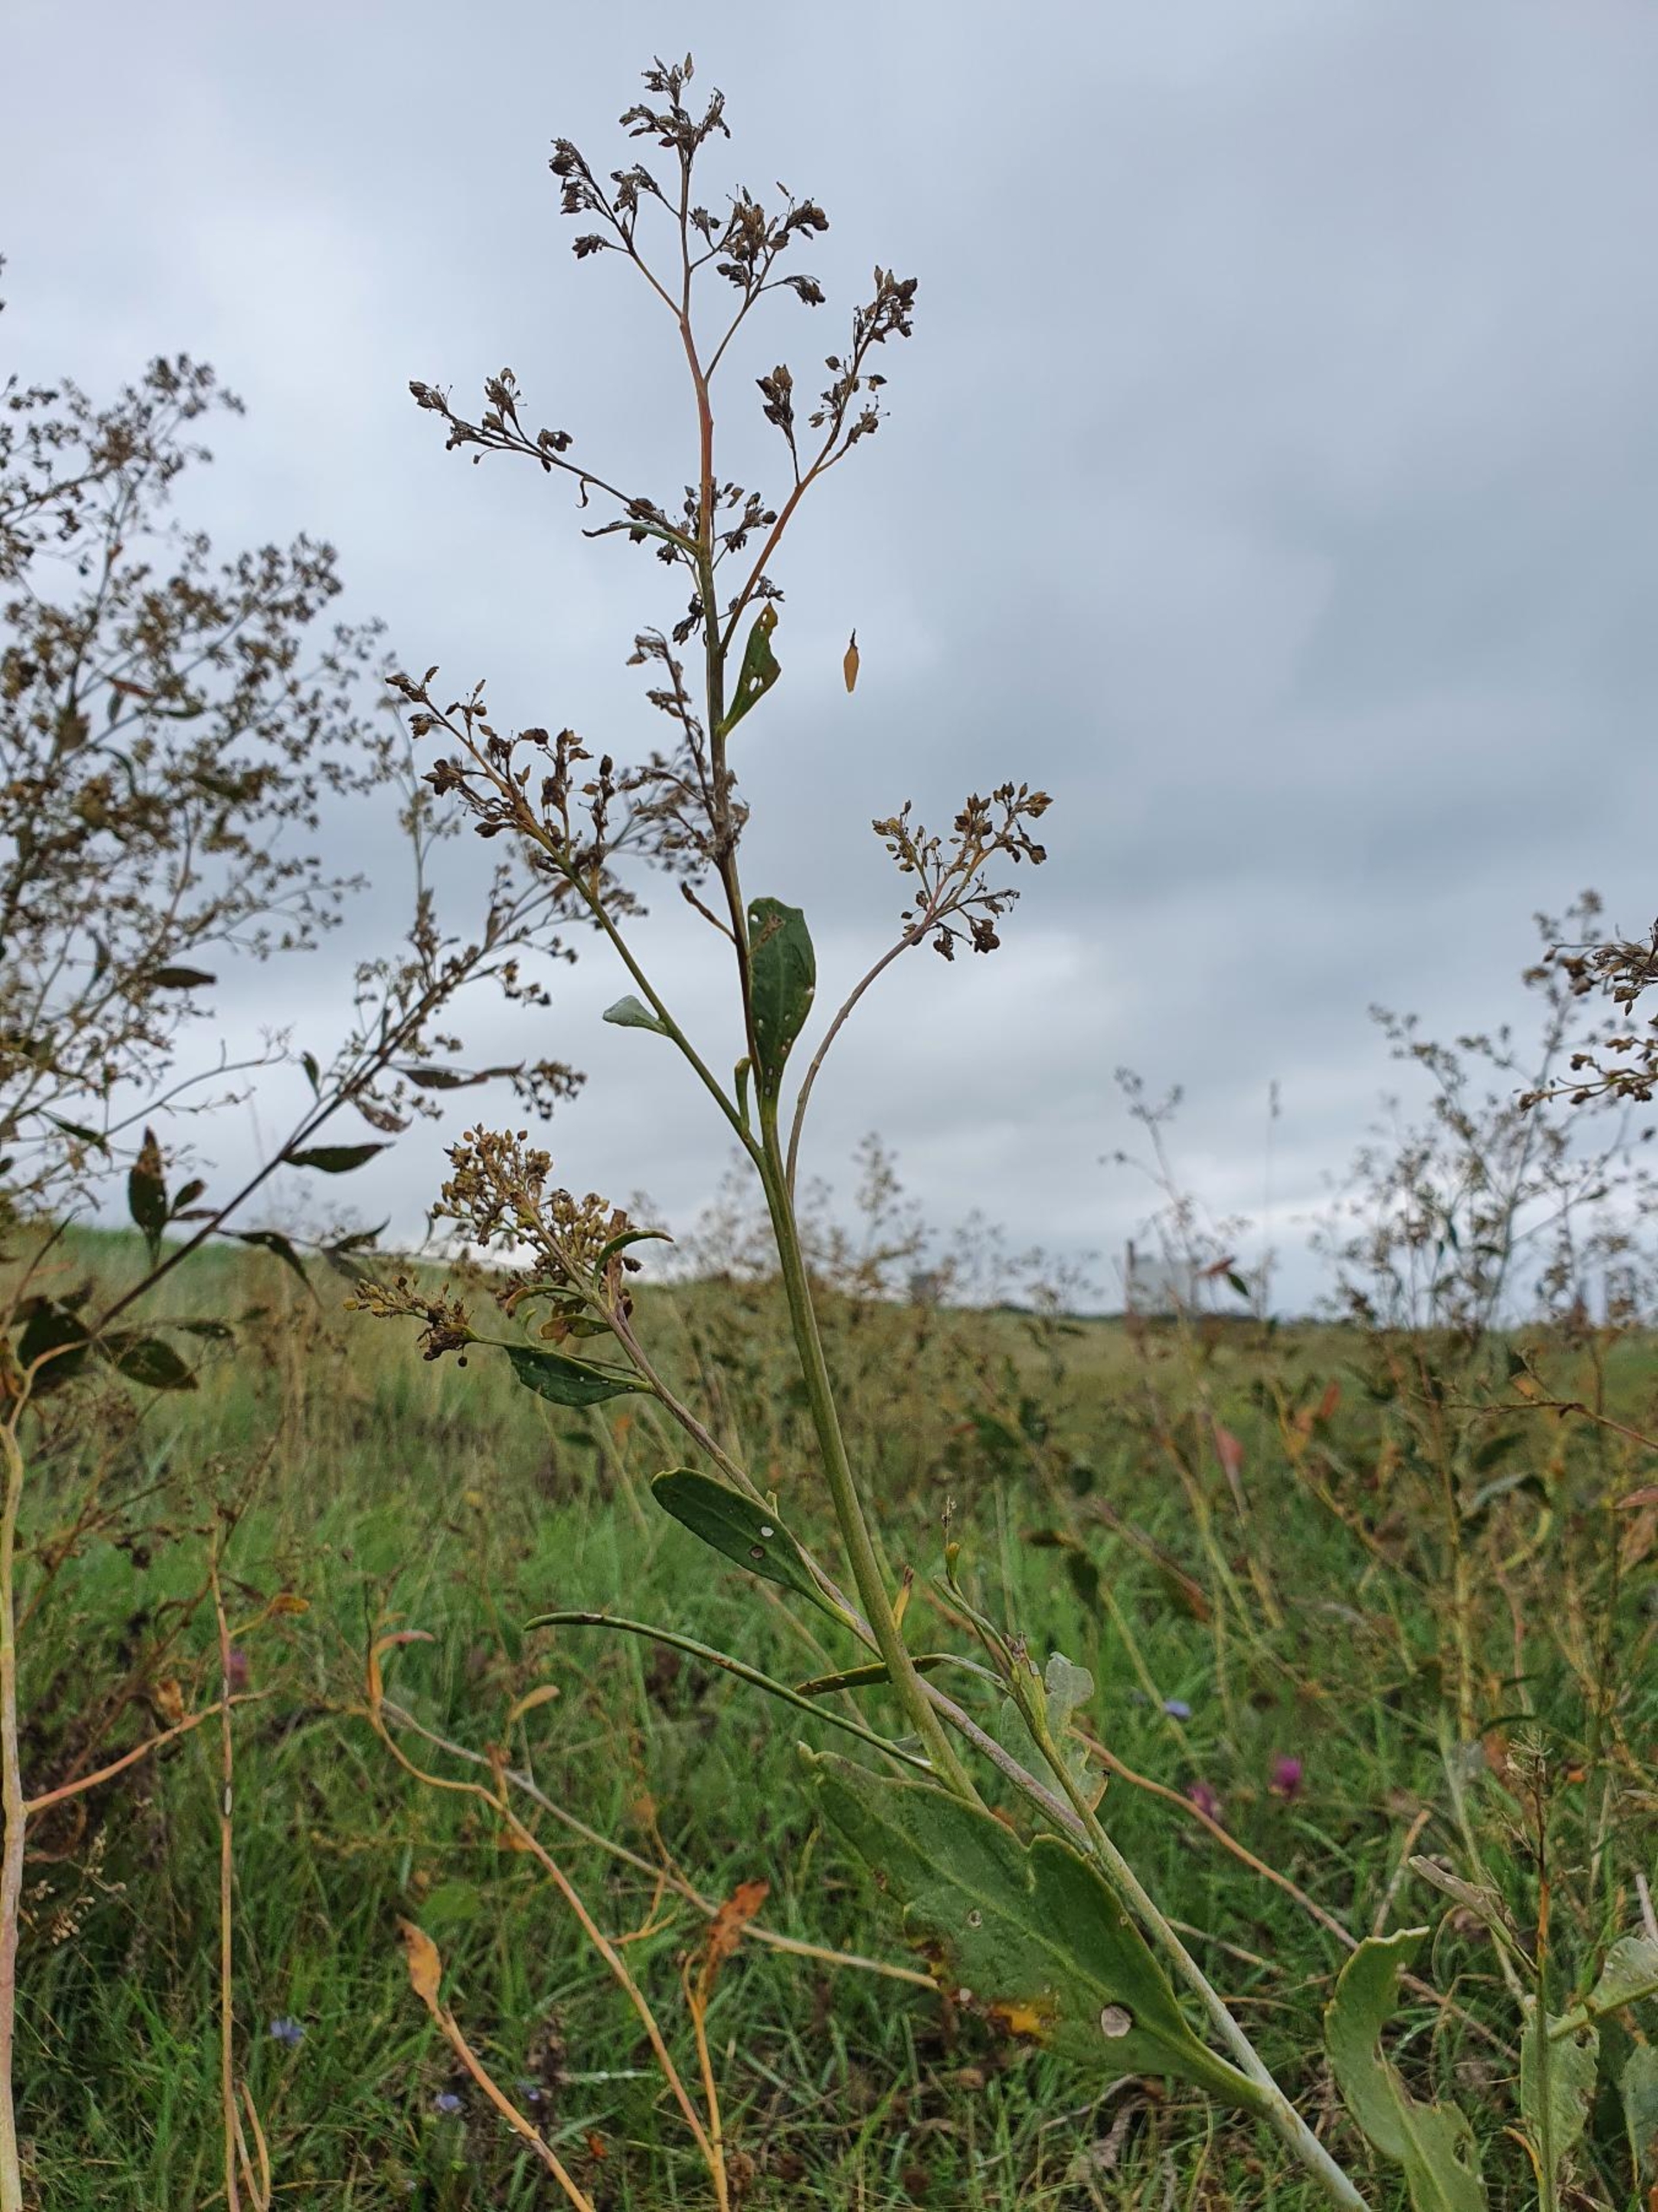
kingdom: Plantae
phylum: Tracheophyta
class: Magnoliopsida
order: Brassicales
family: Brassicaceae
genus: Lepidium
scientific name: Lepidium latifolium
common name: Strand-karse
